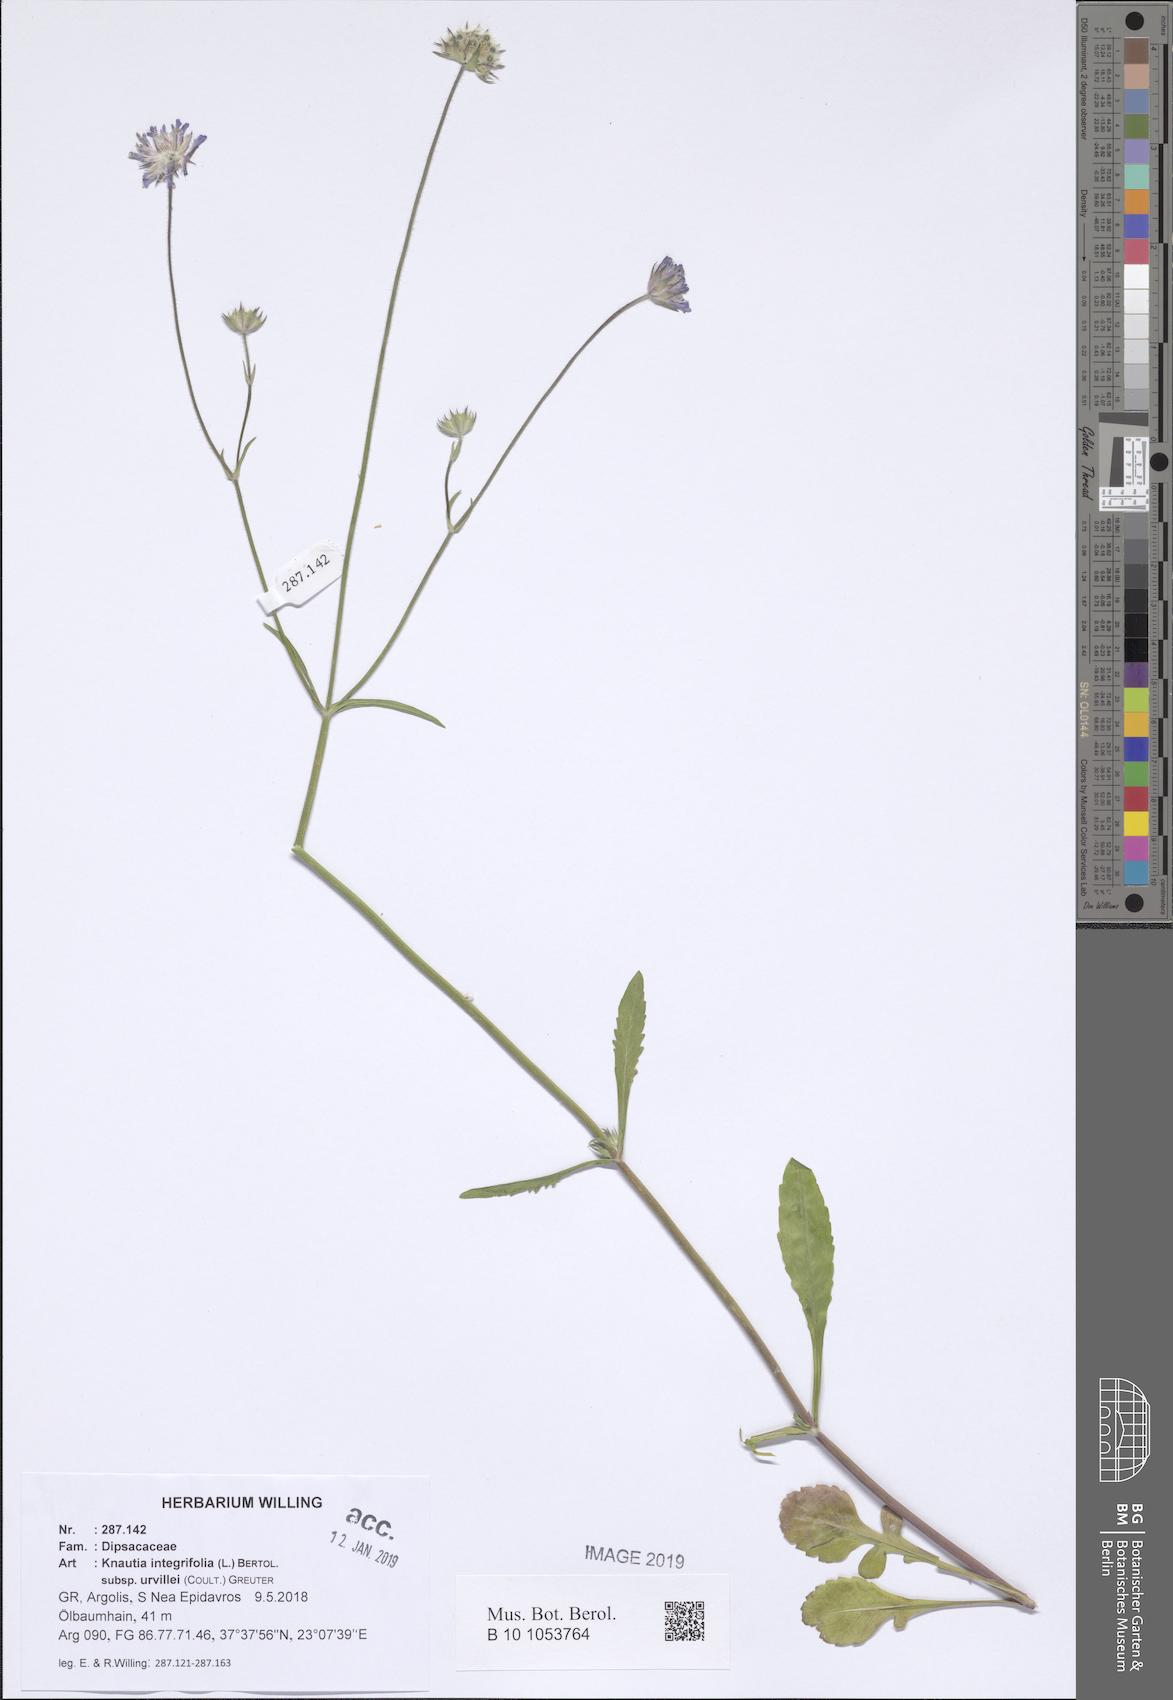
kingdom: Plantae
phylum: Tracheophyta
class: Magnoliopsida
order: Dipsacales
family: Caprifoliaceae
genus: Knautia
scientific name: Knautia integrifolia
